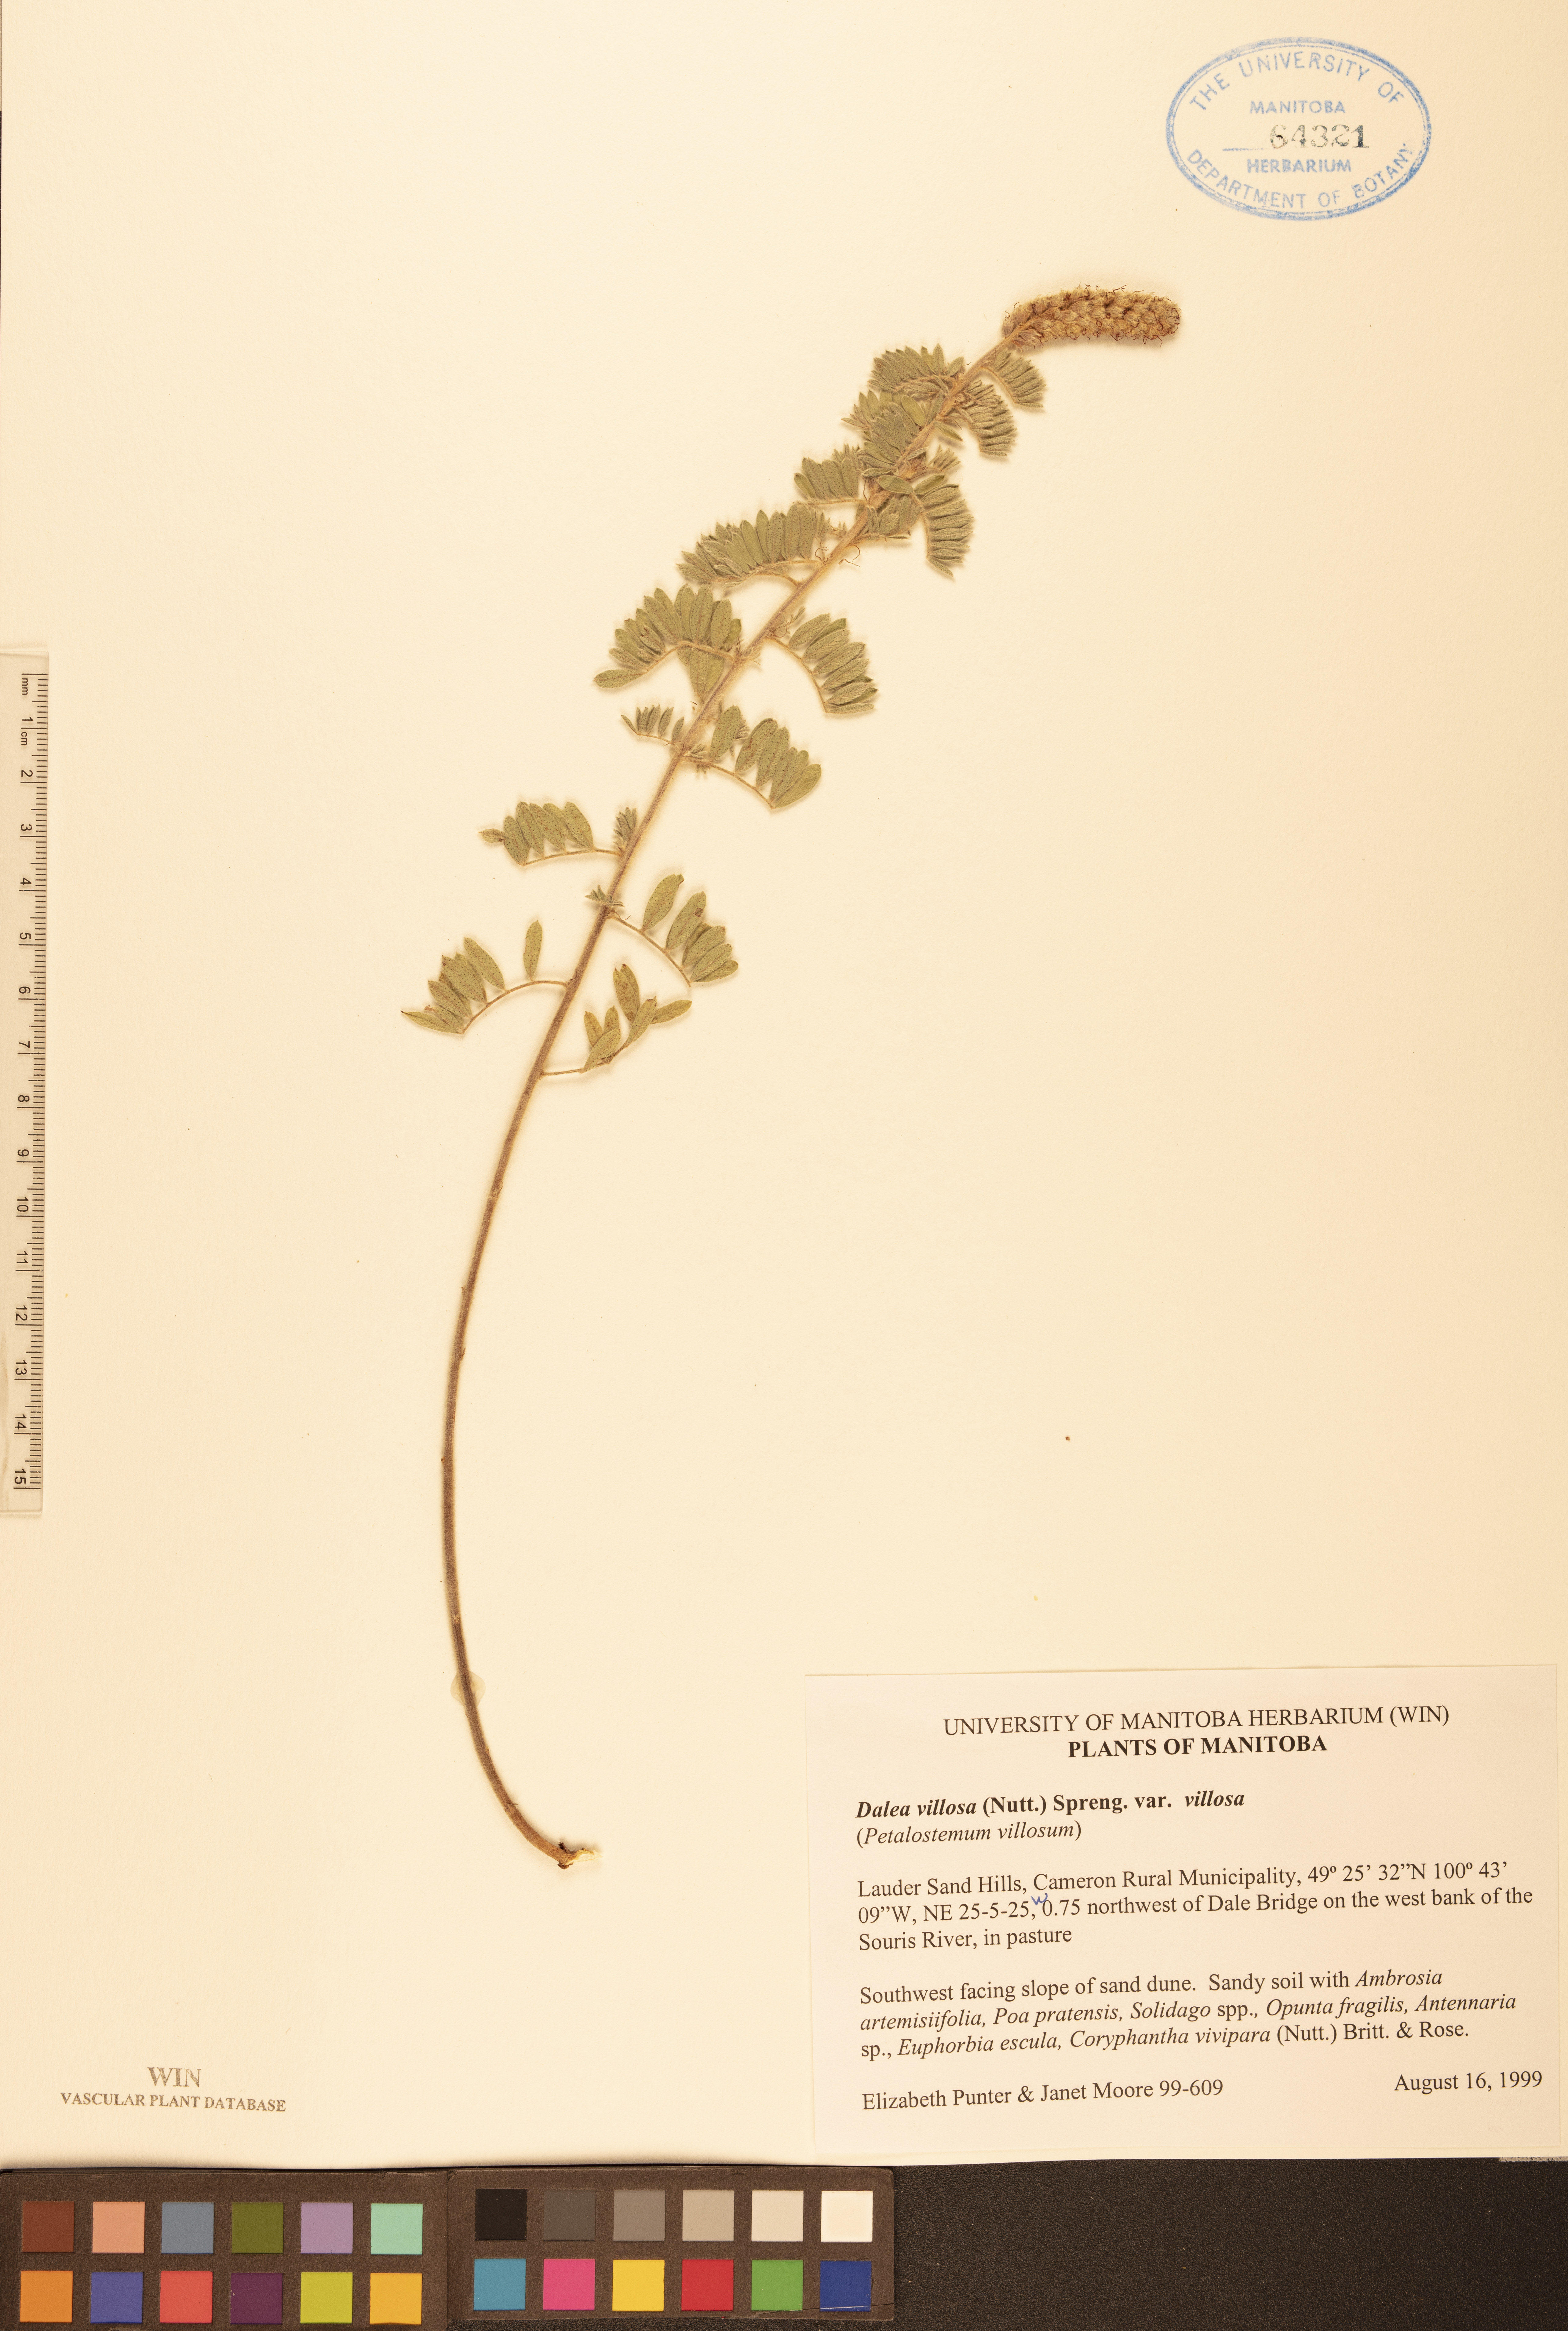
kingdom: Plantae
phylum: Tracheophyta
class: Magnoliopsida
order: Fabales
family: Fabaceae
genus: Dalea
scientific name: Dalea villosa
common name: Silky prairie-clover
